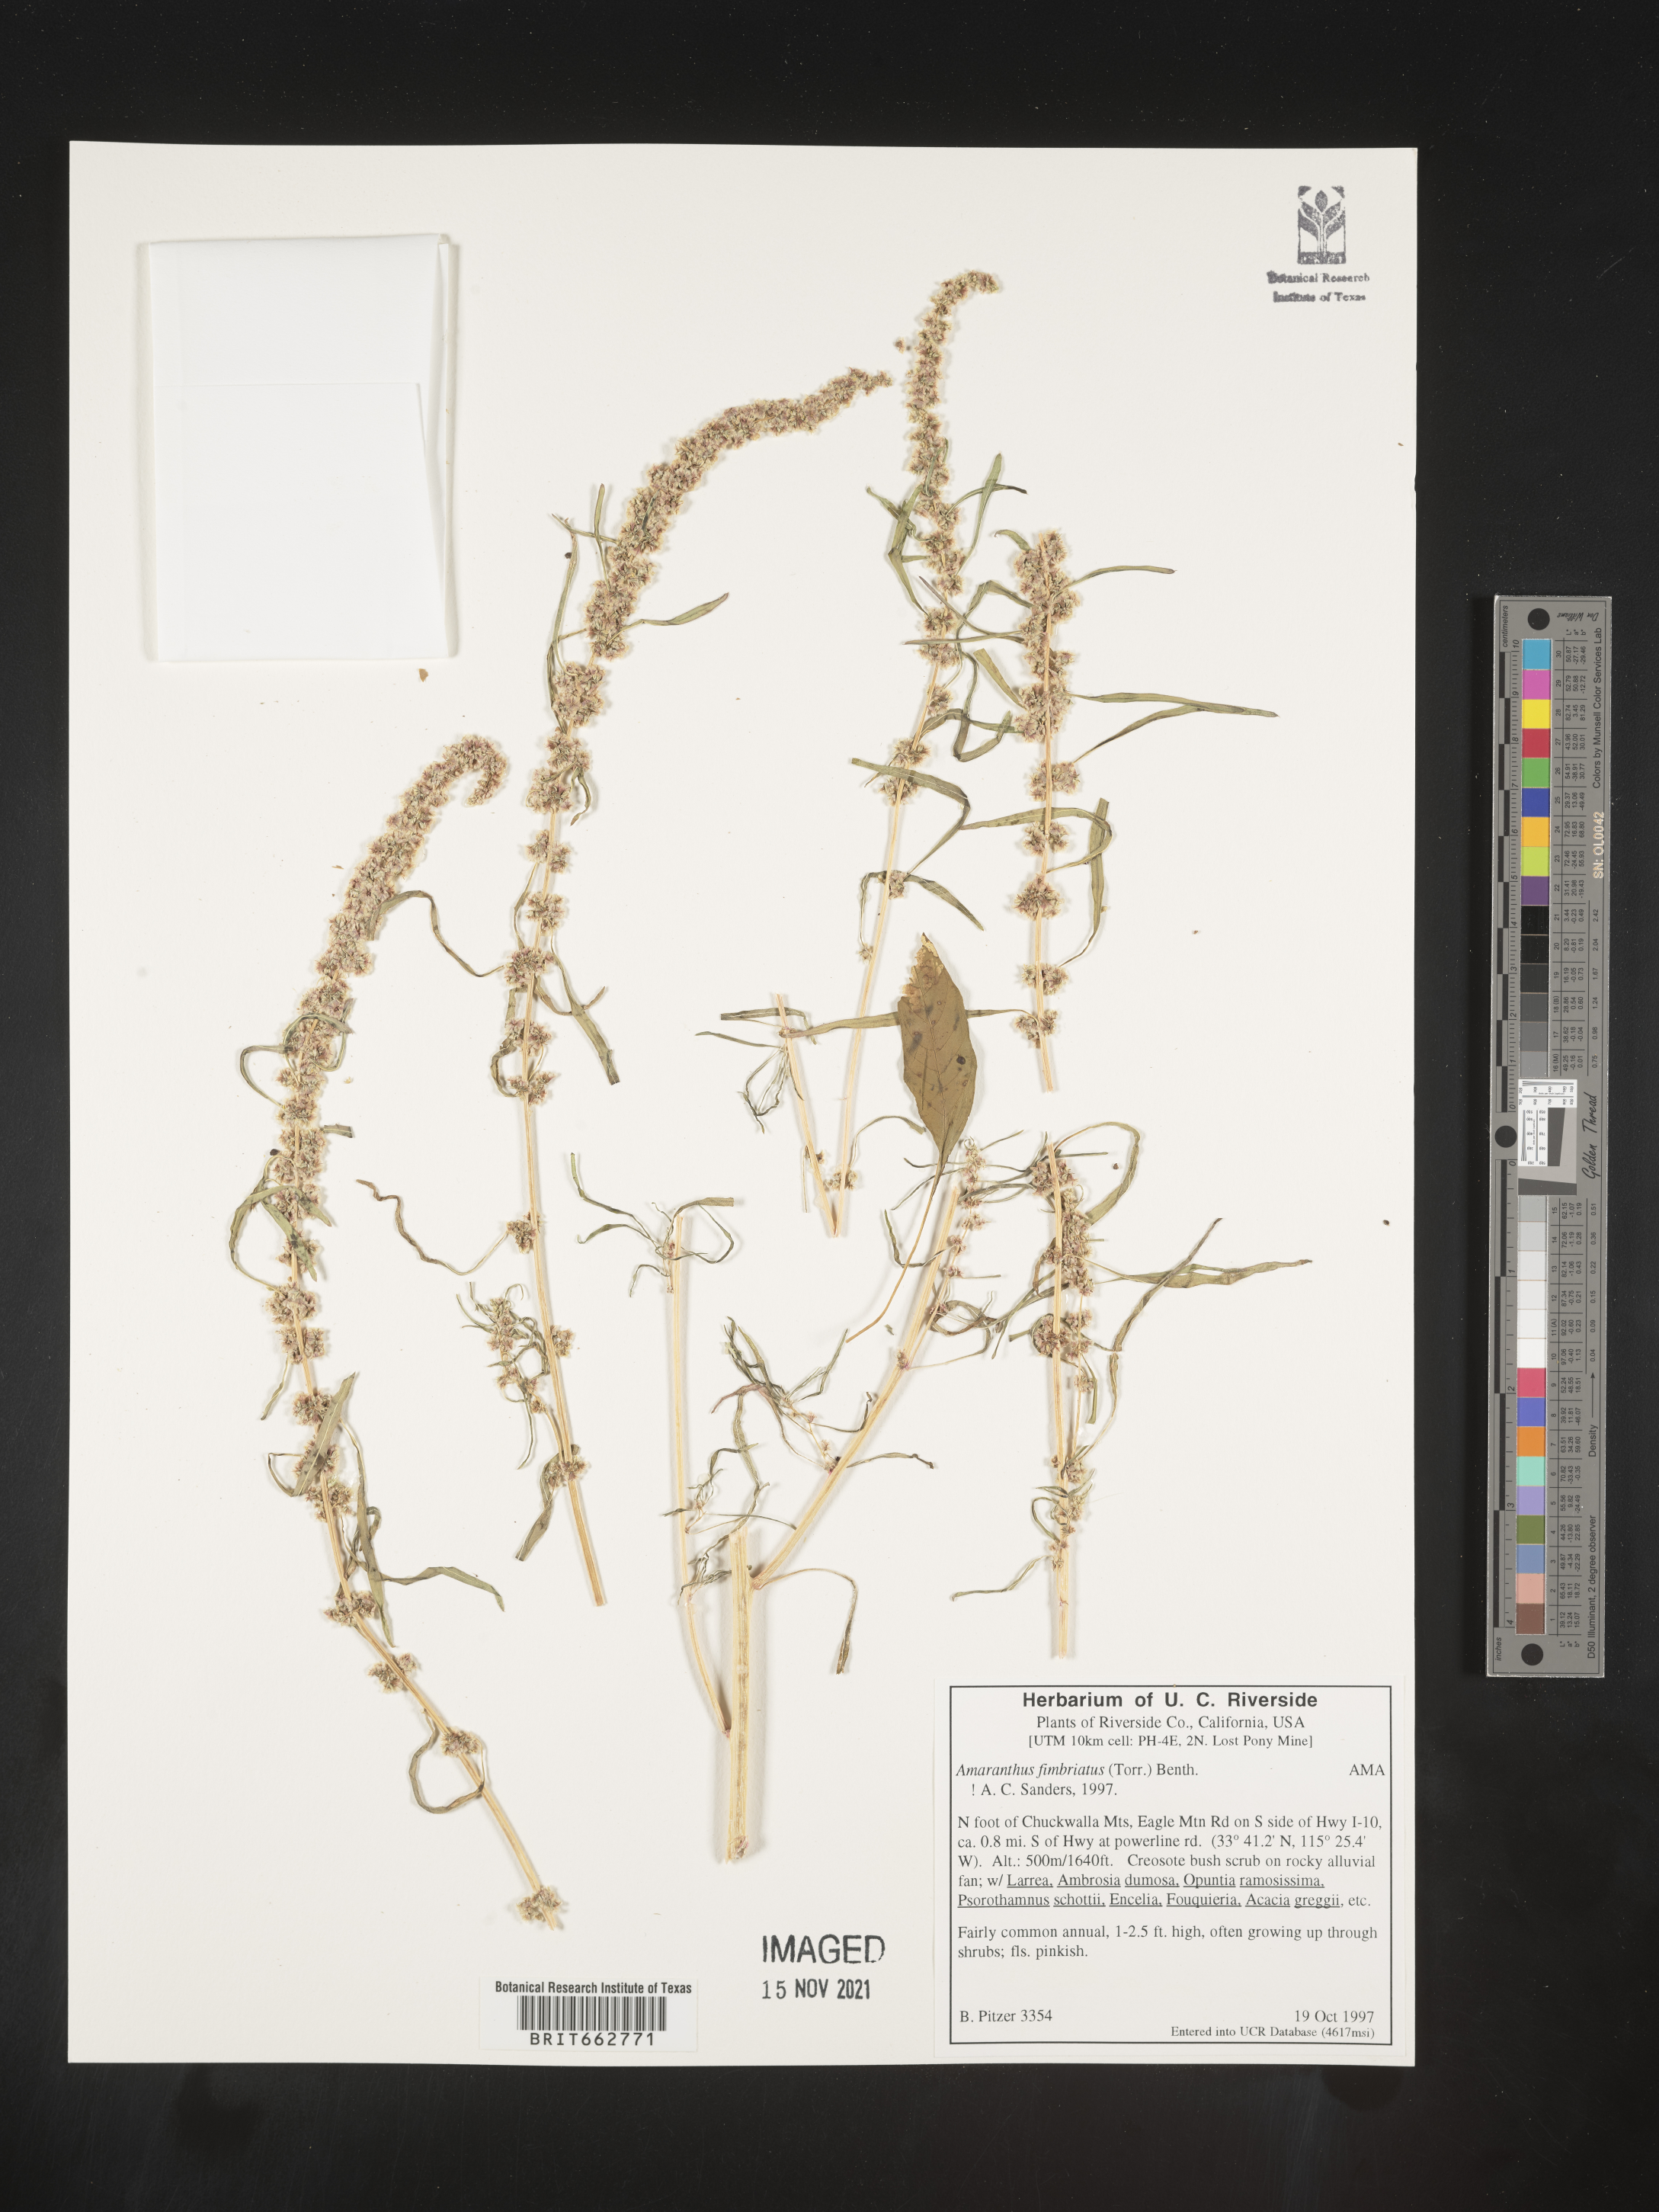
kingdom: Plantae
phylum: Tracheophyta
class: Magnoliopsida
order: Caryophyllales
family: Amaranthaceae
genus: Amaranthus
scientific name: Amaranthus
